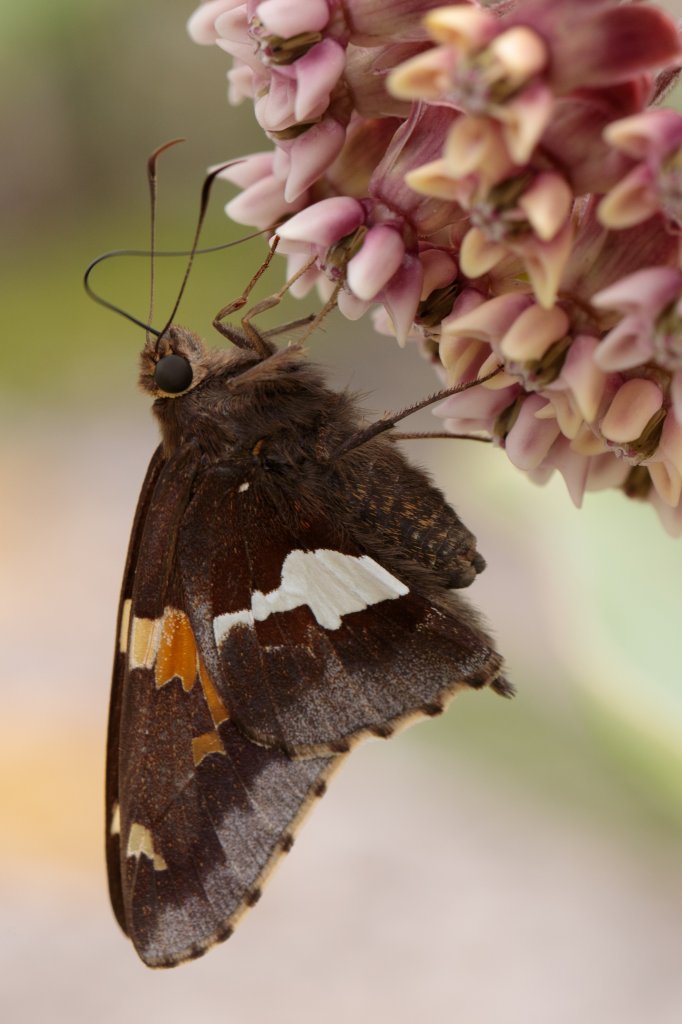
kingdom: Animalia
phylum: Arthropoda
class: Insecta
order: Lepidoptera
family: Hesperiidae
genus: Epargyreus
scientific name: Epargyreus clarus
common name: Silver-spotted Skipper
